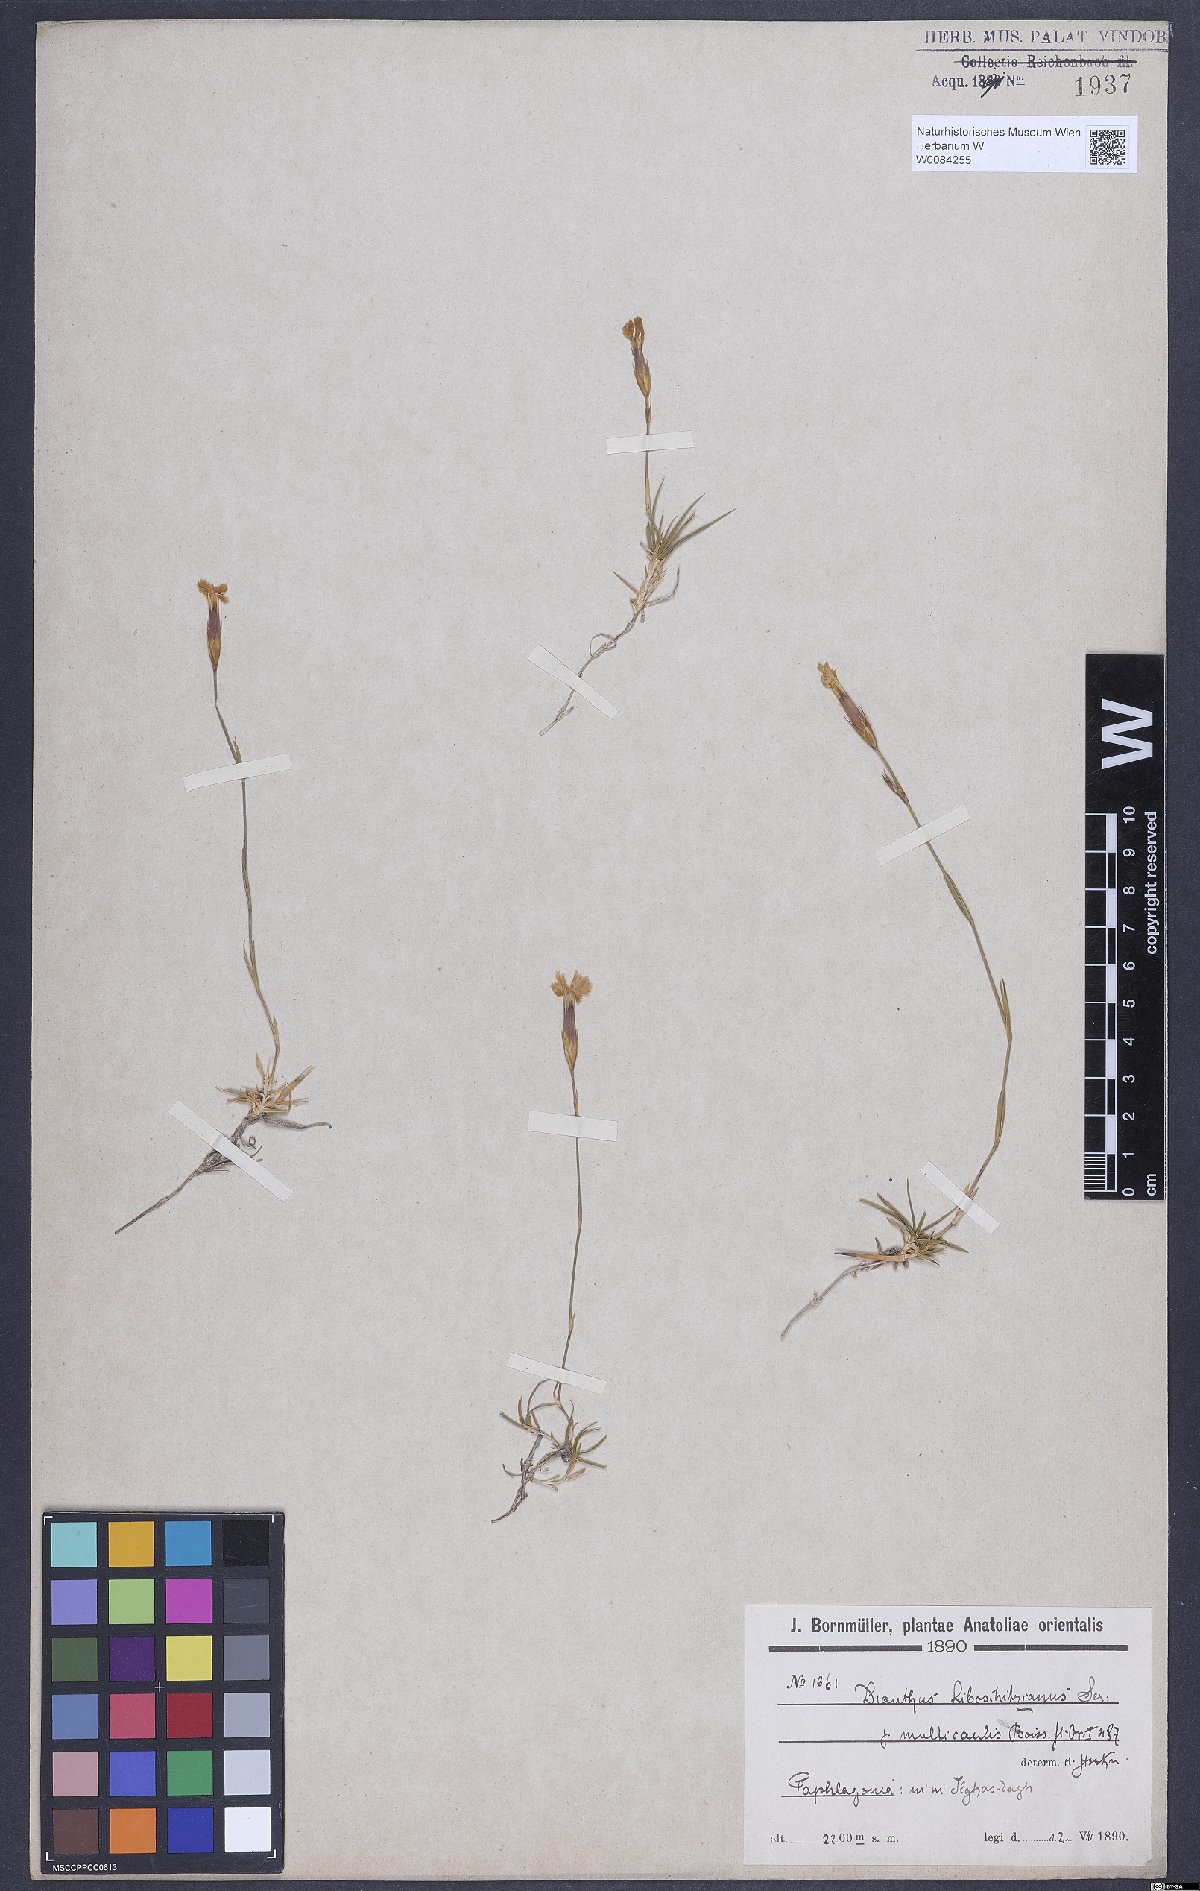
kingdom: Plantae
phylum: Tracheophyta
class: Magnoliopsida
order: Caryophyllales
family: Caryophyllaceae
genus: Dianthus
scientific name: Dianthus cretaceus
